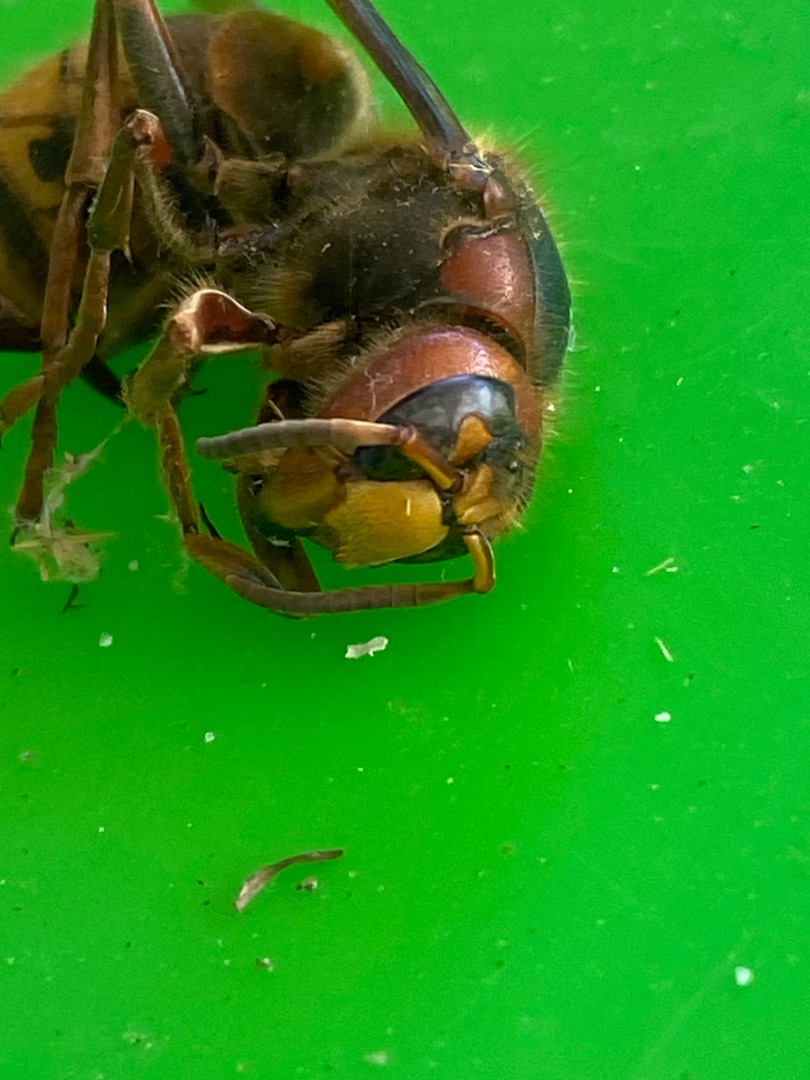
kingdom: Animalia
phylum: Arthropoda
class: Insecta
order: Hymenoptera
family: Vespidae
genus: Vespa
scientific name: Vespa crabro
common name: Stor gedehams
